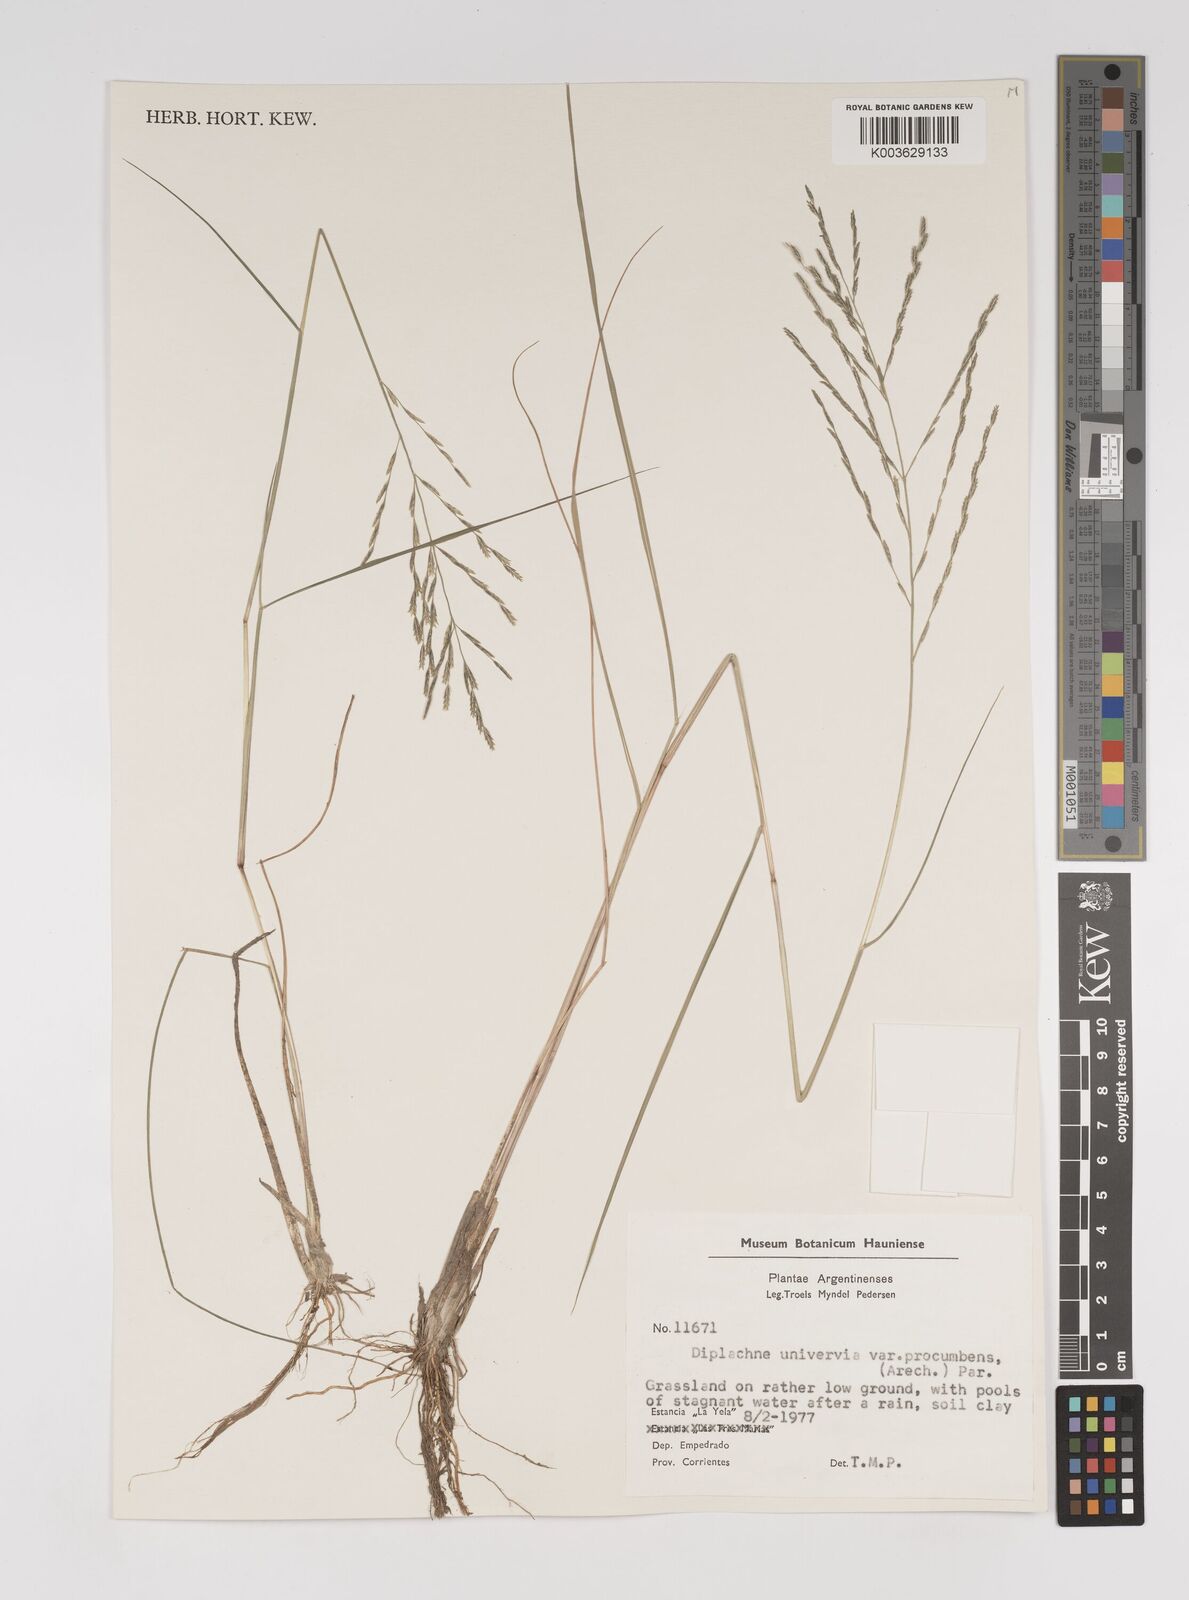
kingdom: Plantae
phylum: Tracheophyta
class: Liliopsida
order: Poales
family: Poaceae
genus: Diplachne
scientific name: Diplachne fusca
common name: Brown beetle grass
